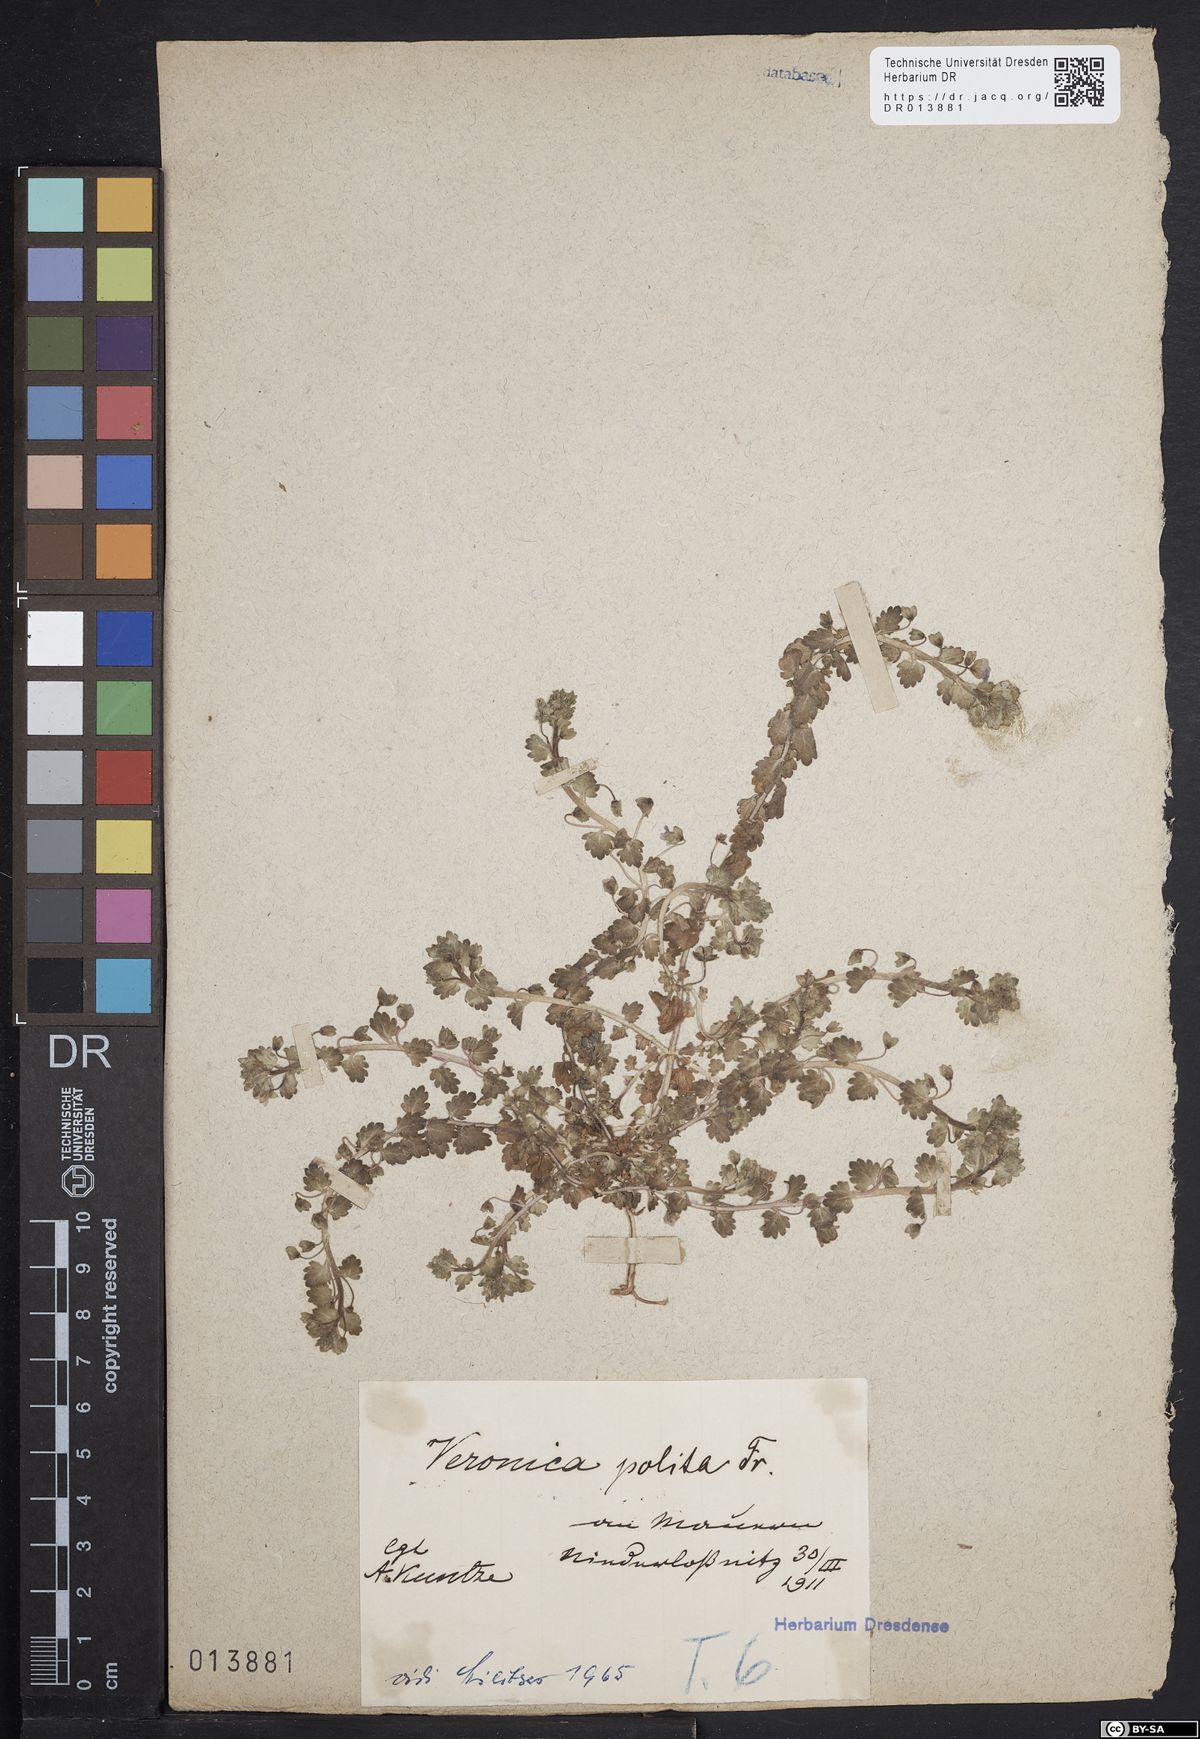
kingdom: Plantae
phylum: Tracheophyta
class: Magnoliopsida
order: Lamiales
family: Plantaginaceae
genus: Veronica
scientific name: Veronica polita
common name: Grey field-speedwell
